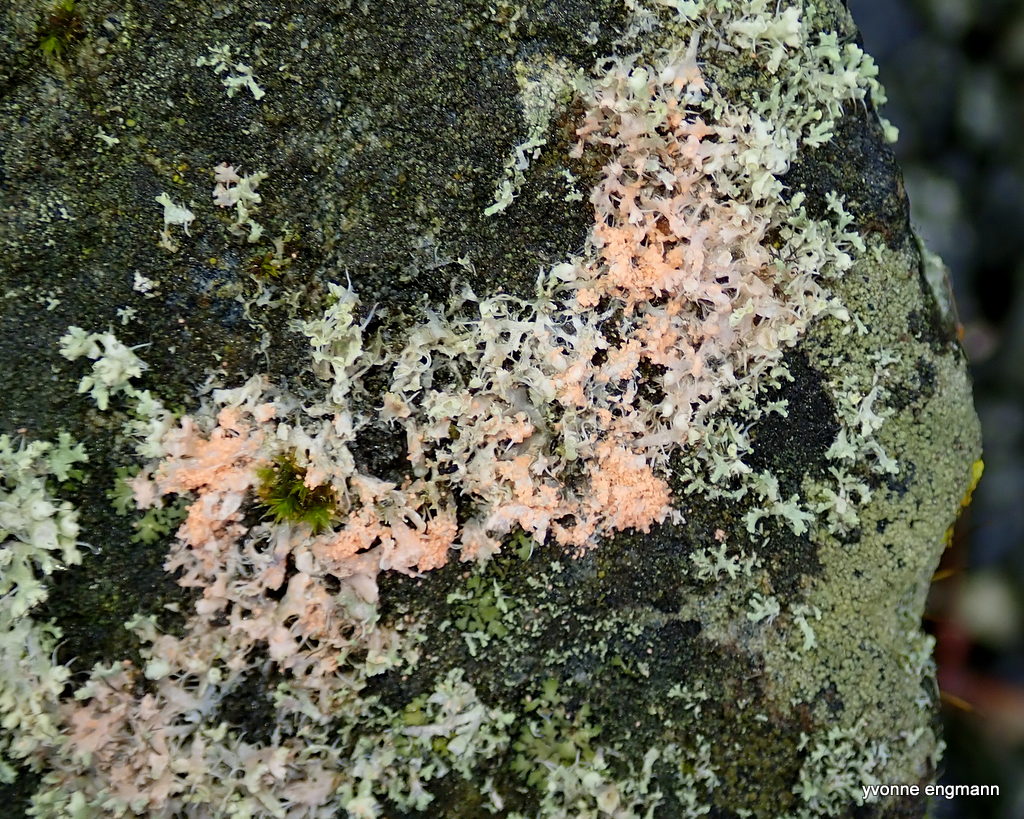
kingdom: Fungi
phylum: Basidiomycota
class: Agaricomycetes
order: Corticiales
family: Corticiaceae
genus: Erythricium
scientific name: Erythricium aurantiacum
